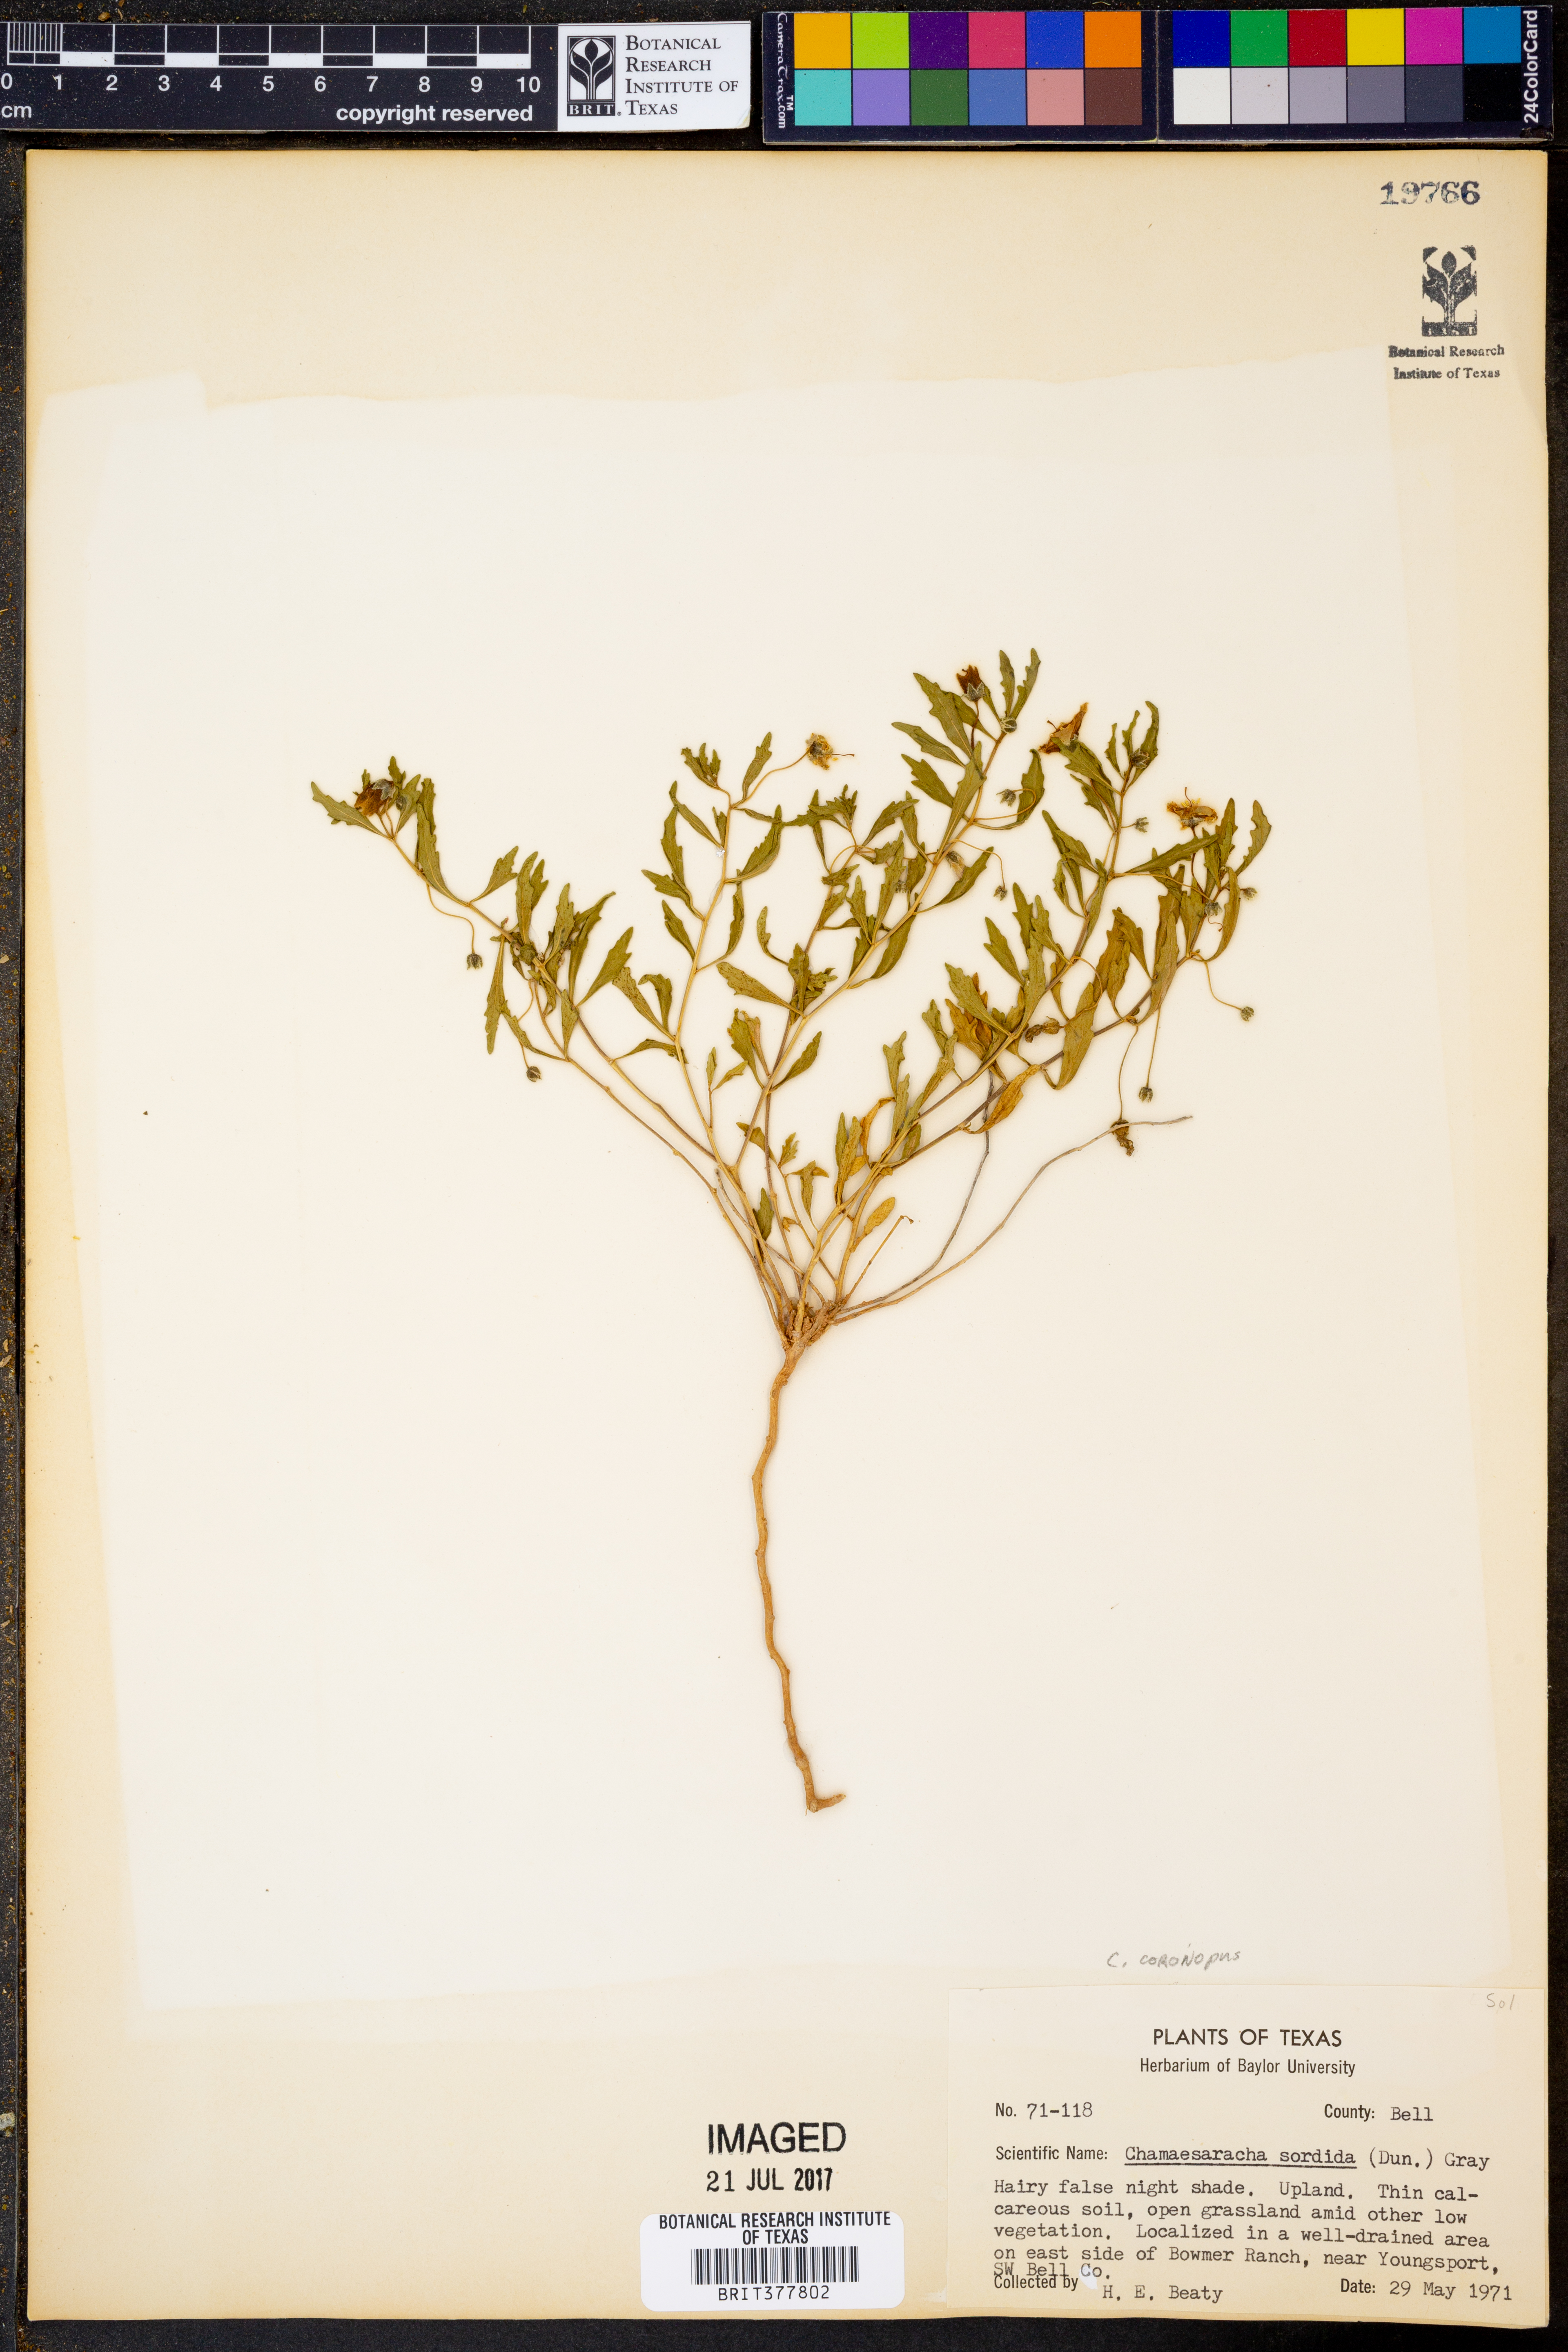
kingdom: Plantae
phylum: Tracheophyta
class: Magnoliopsida
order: Solanales
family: Solanaceae
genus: Chamaesaracha
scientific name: Chamaesaracha coronopus
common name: Smooth chamaesaracha
